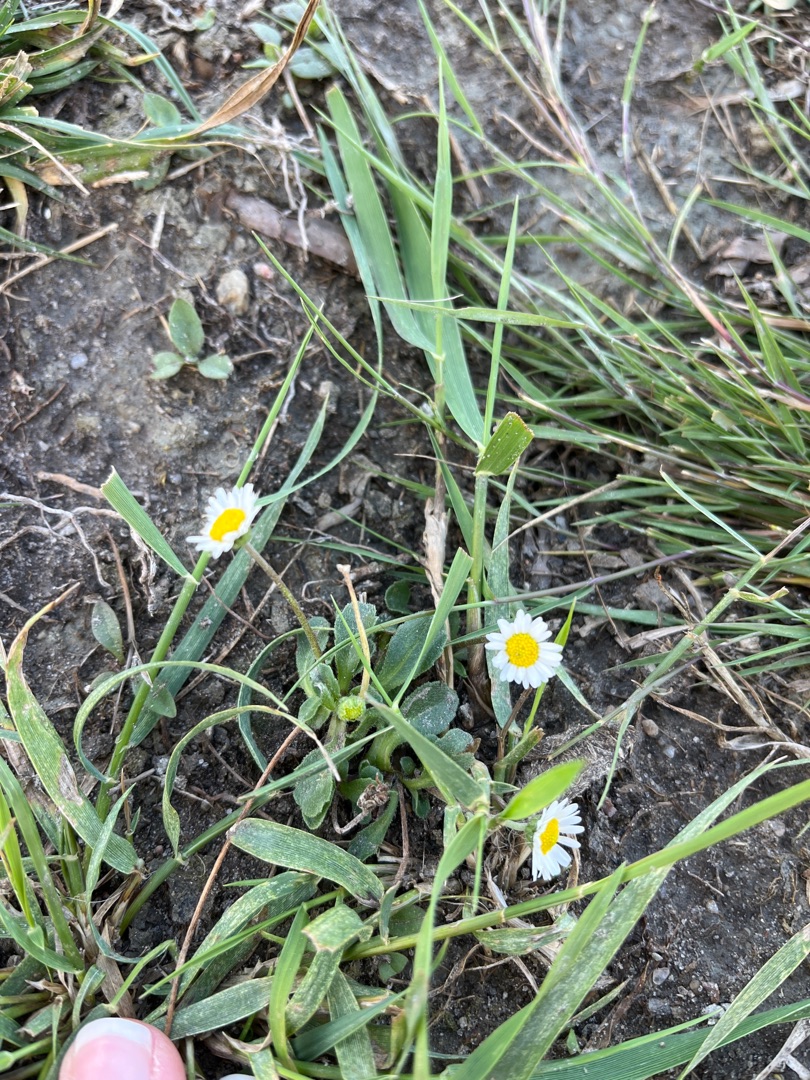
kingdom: Plantae
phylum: Tracheophyta
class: Magnoliopsida
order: Asterales
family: Asteraceae
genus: Bellis
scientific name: Bellis perennis
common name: Tusindfryd
